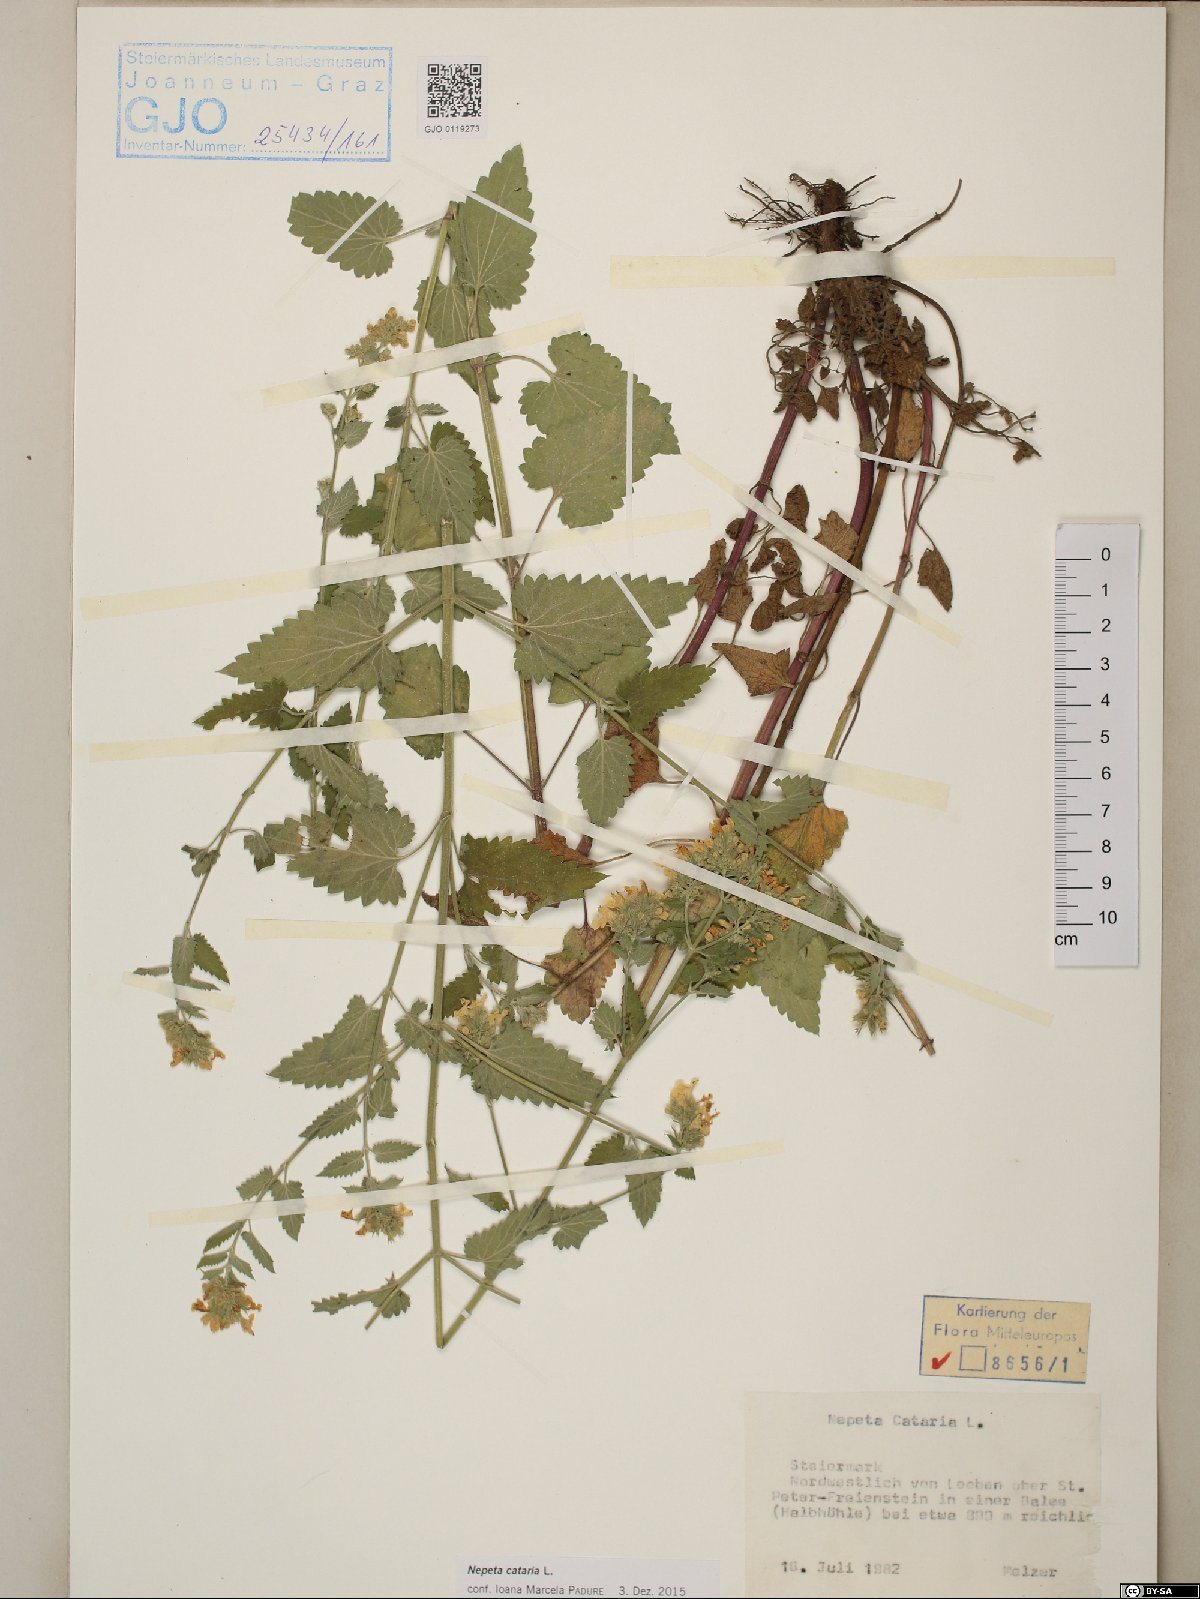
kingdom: Plantae
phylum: Tracheophyta
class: Magnoliopsida
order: Lamiales
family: Lamiaceae
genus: Nepeta
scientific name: Nepeta cataria
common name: Catnip
